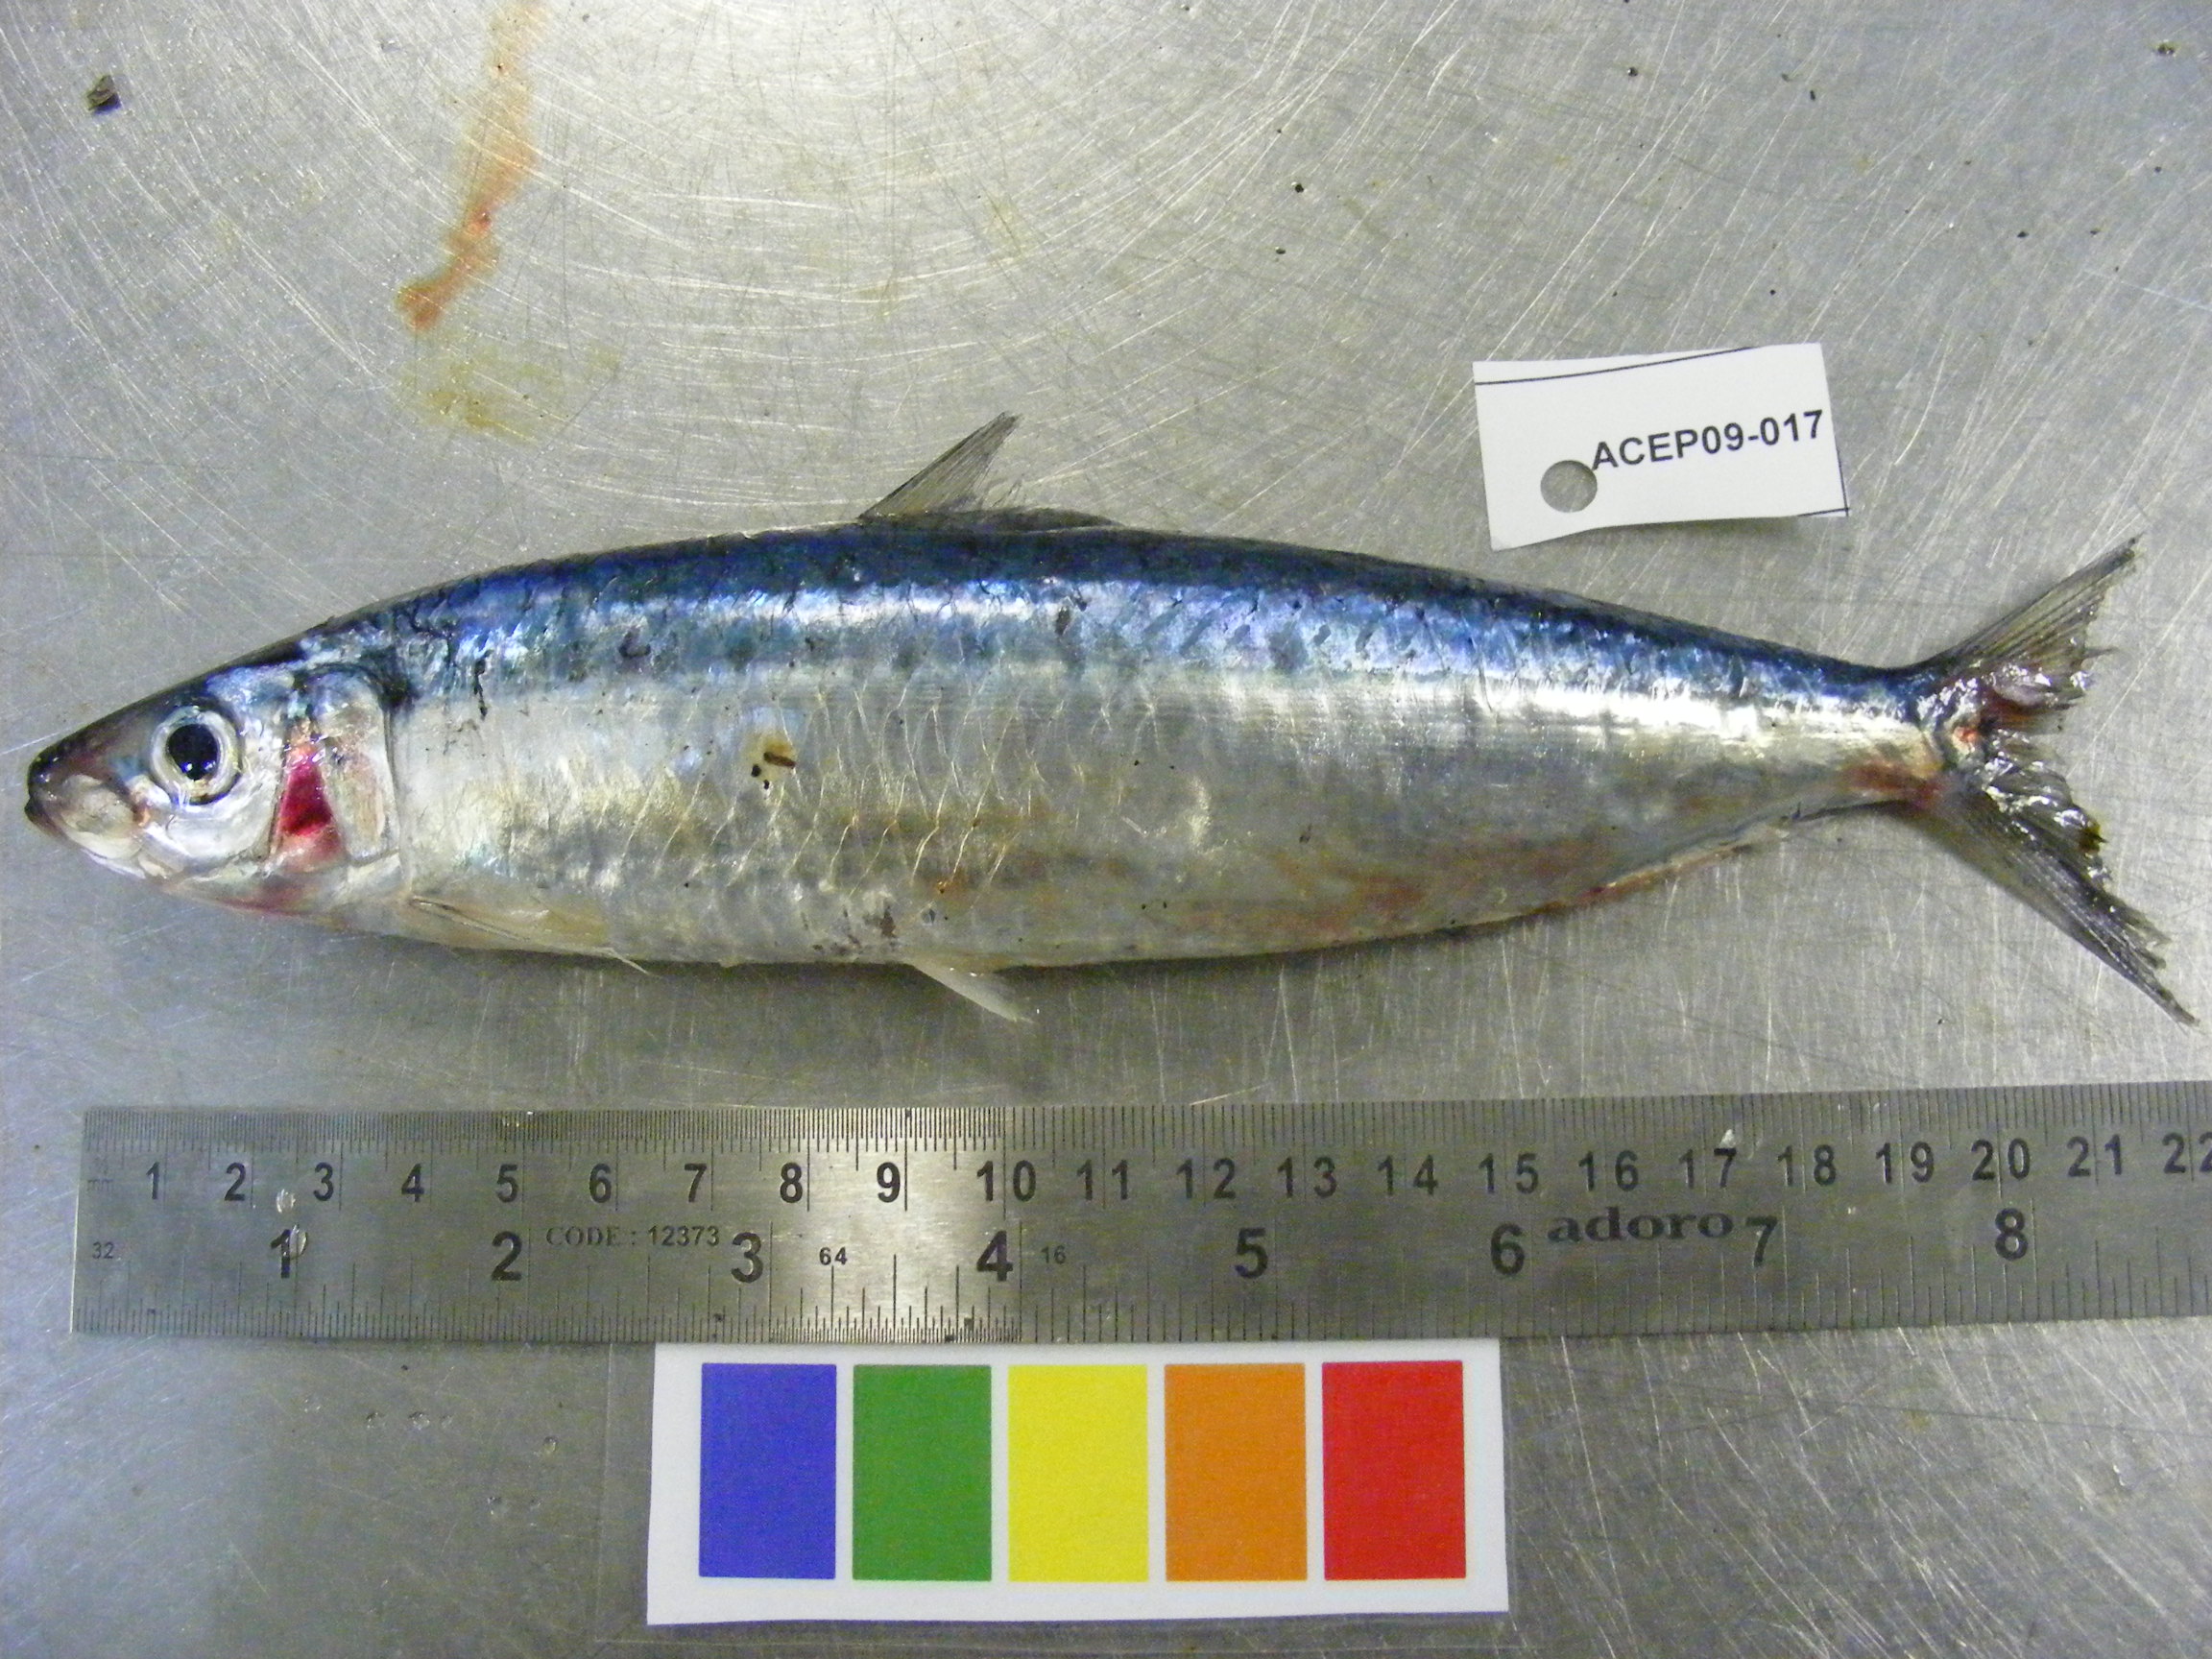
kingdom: Animalia
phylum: Chordata
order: Clupeiformes
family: Clupeidae
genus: Sardinella
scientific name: Sardinella
